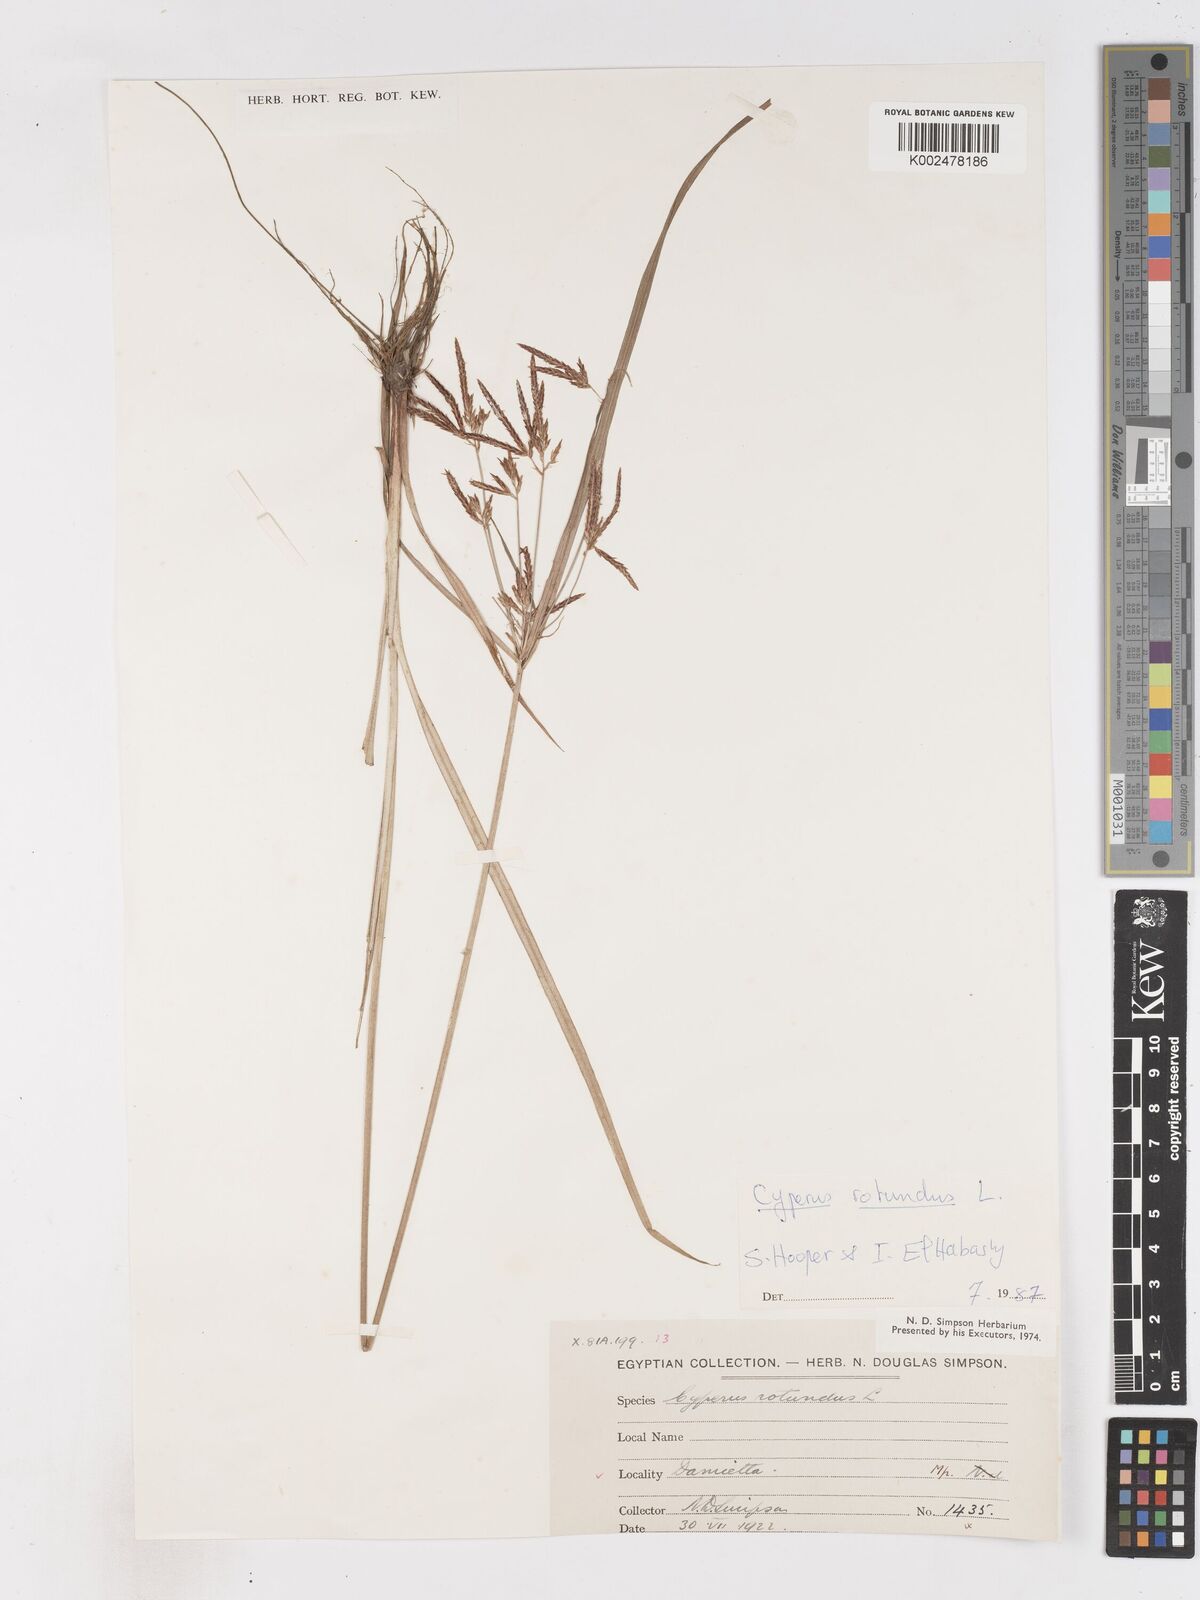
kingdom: Plantae
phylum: Tracheophyta
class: Liliopsida
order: Poales
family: Cyperaceae
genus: Cyperus
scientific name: Cyperus rotundus
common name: Nutgrass
